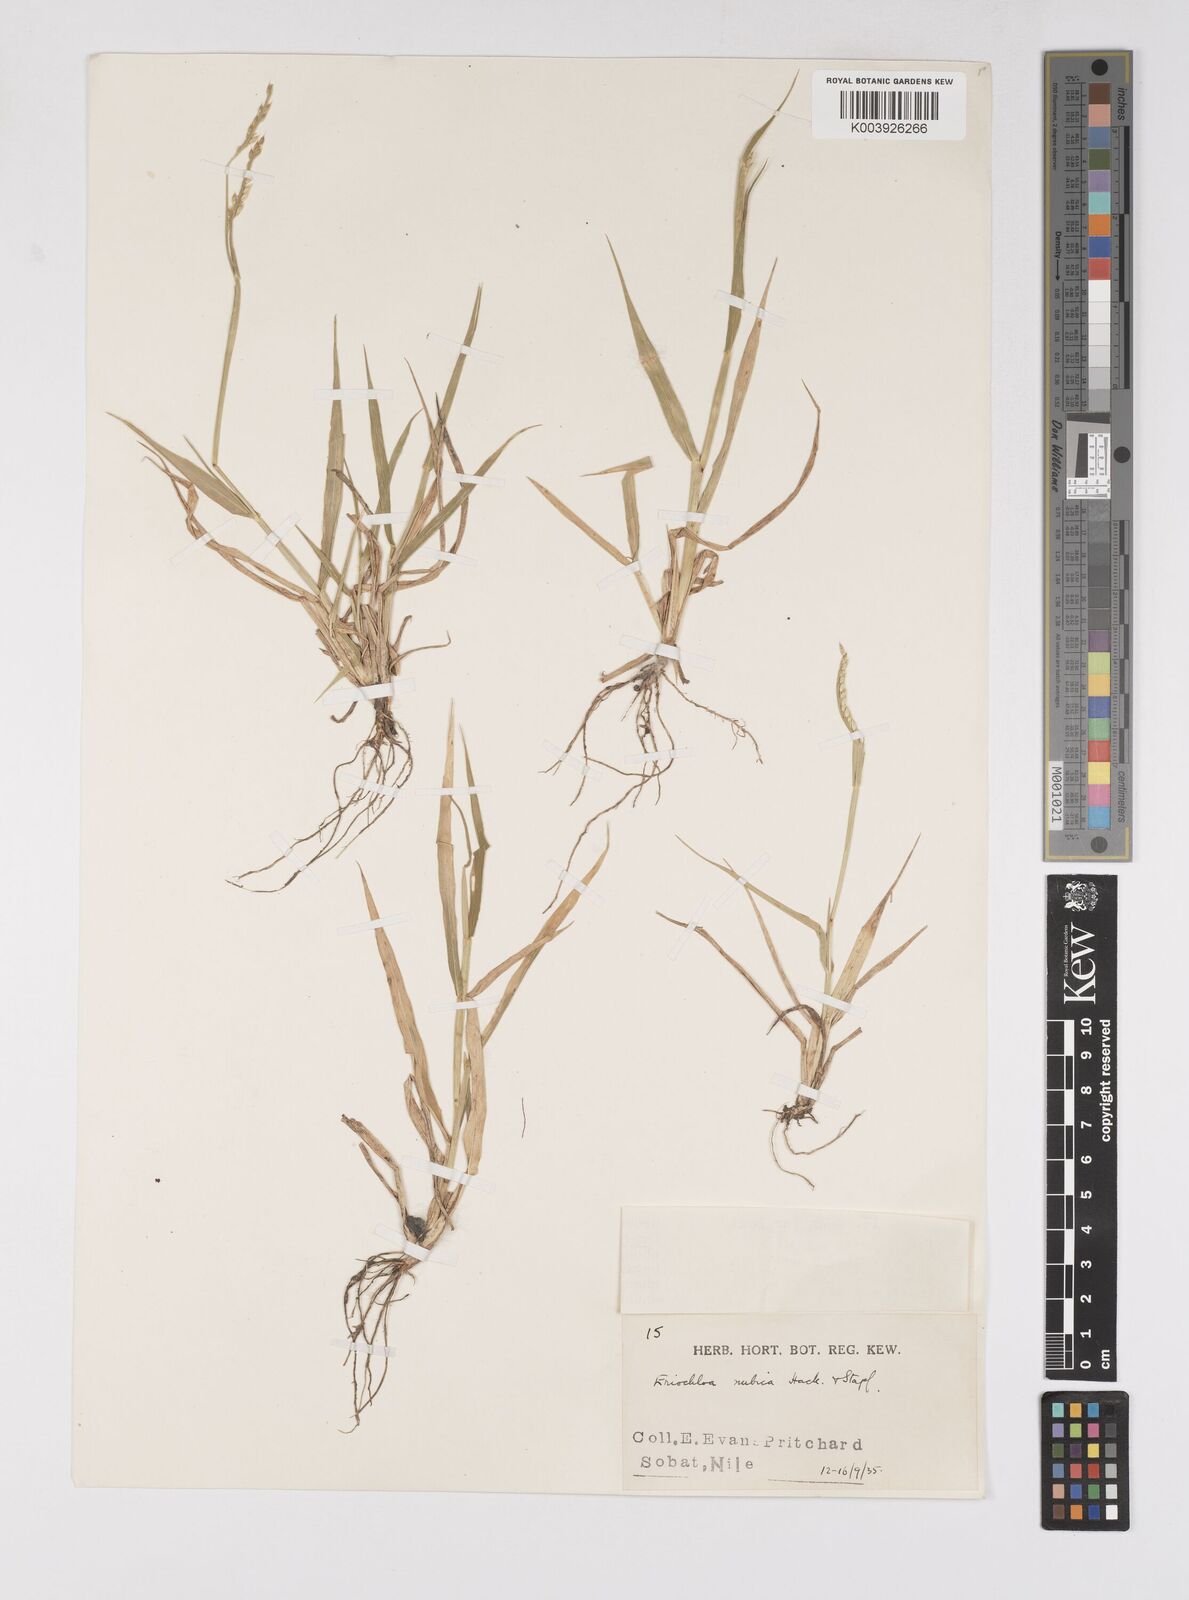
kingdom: Plantae
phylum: Tracheophyta
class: Liliopsida
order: Poales
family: Poaceae
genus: Eriochloa
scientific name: Eriochloa barbatus
